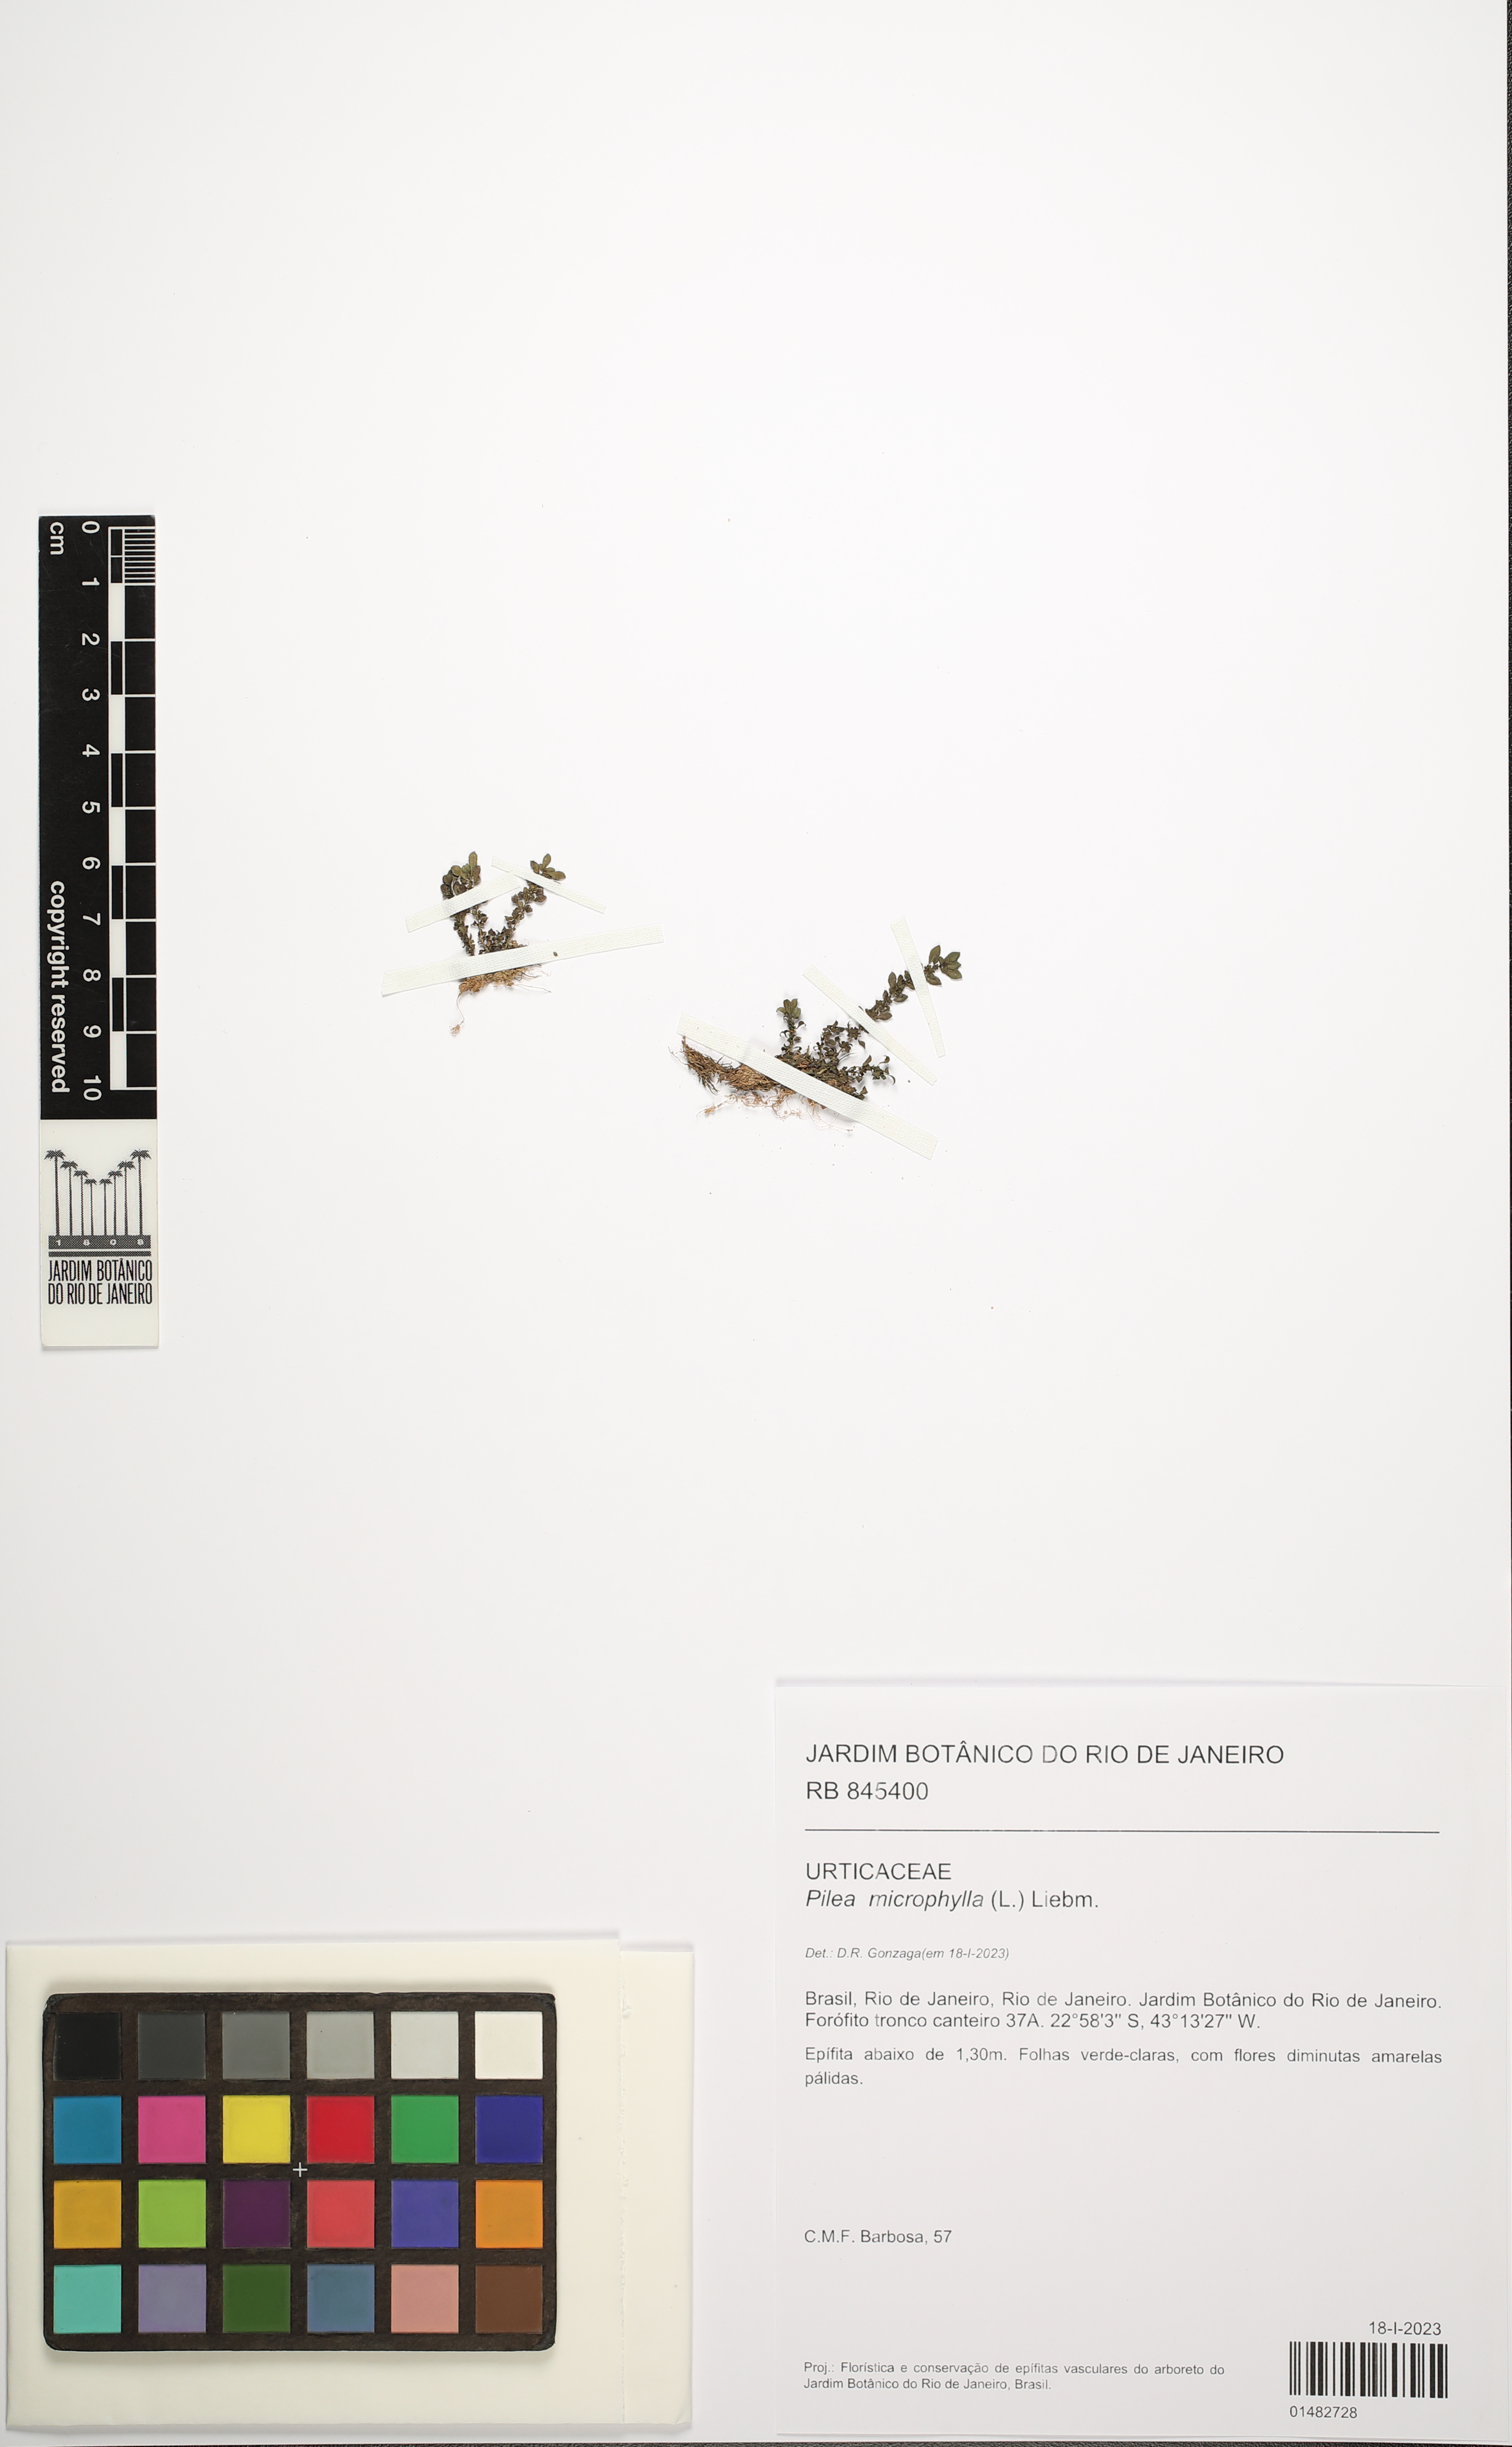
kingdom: Plantae
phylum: Tracheophyta
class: Magnoliopsida
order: Rosales
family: Urticaceae
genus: Pilea
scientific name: Pilea microphylla
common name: Artillery-plant
